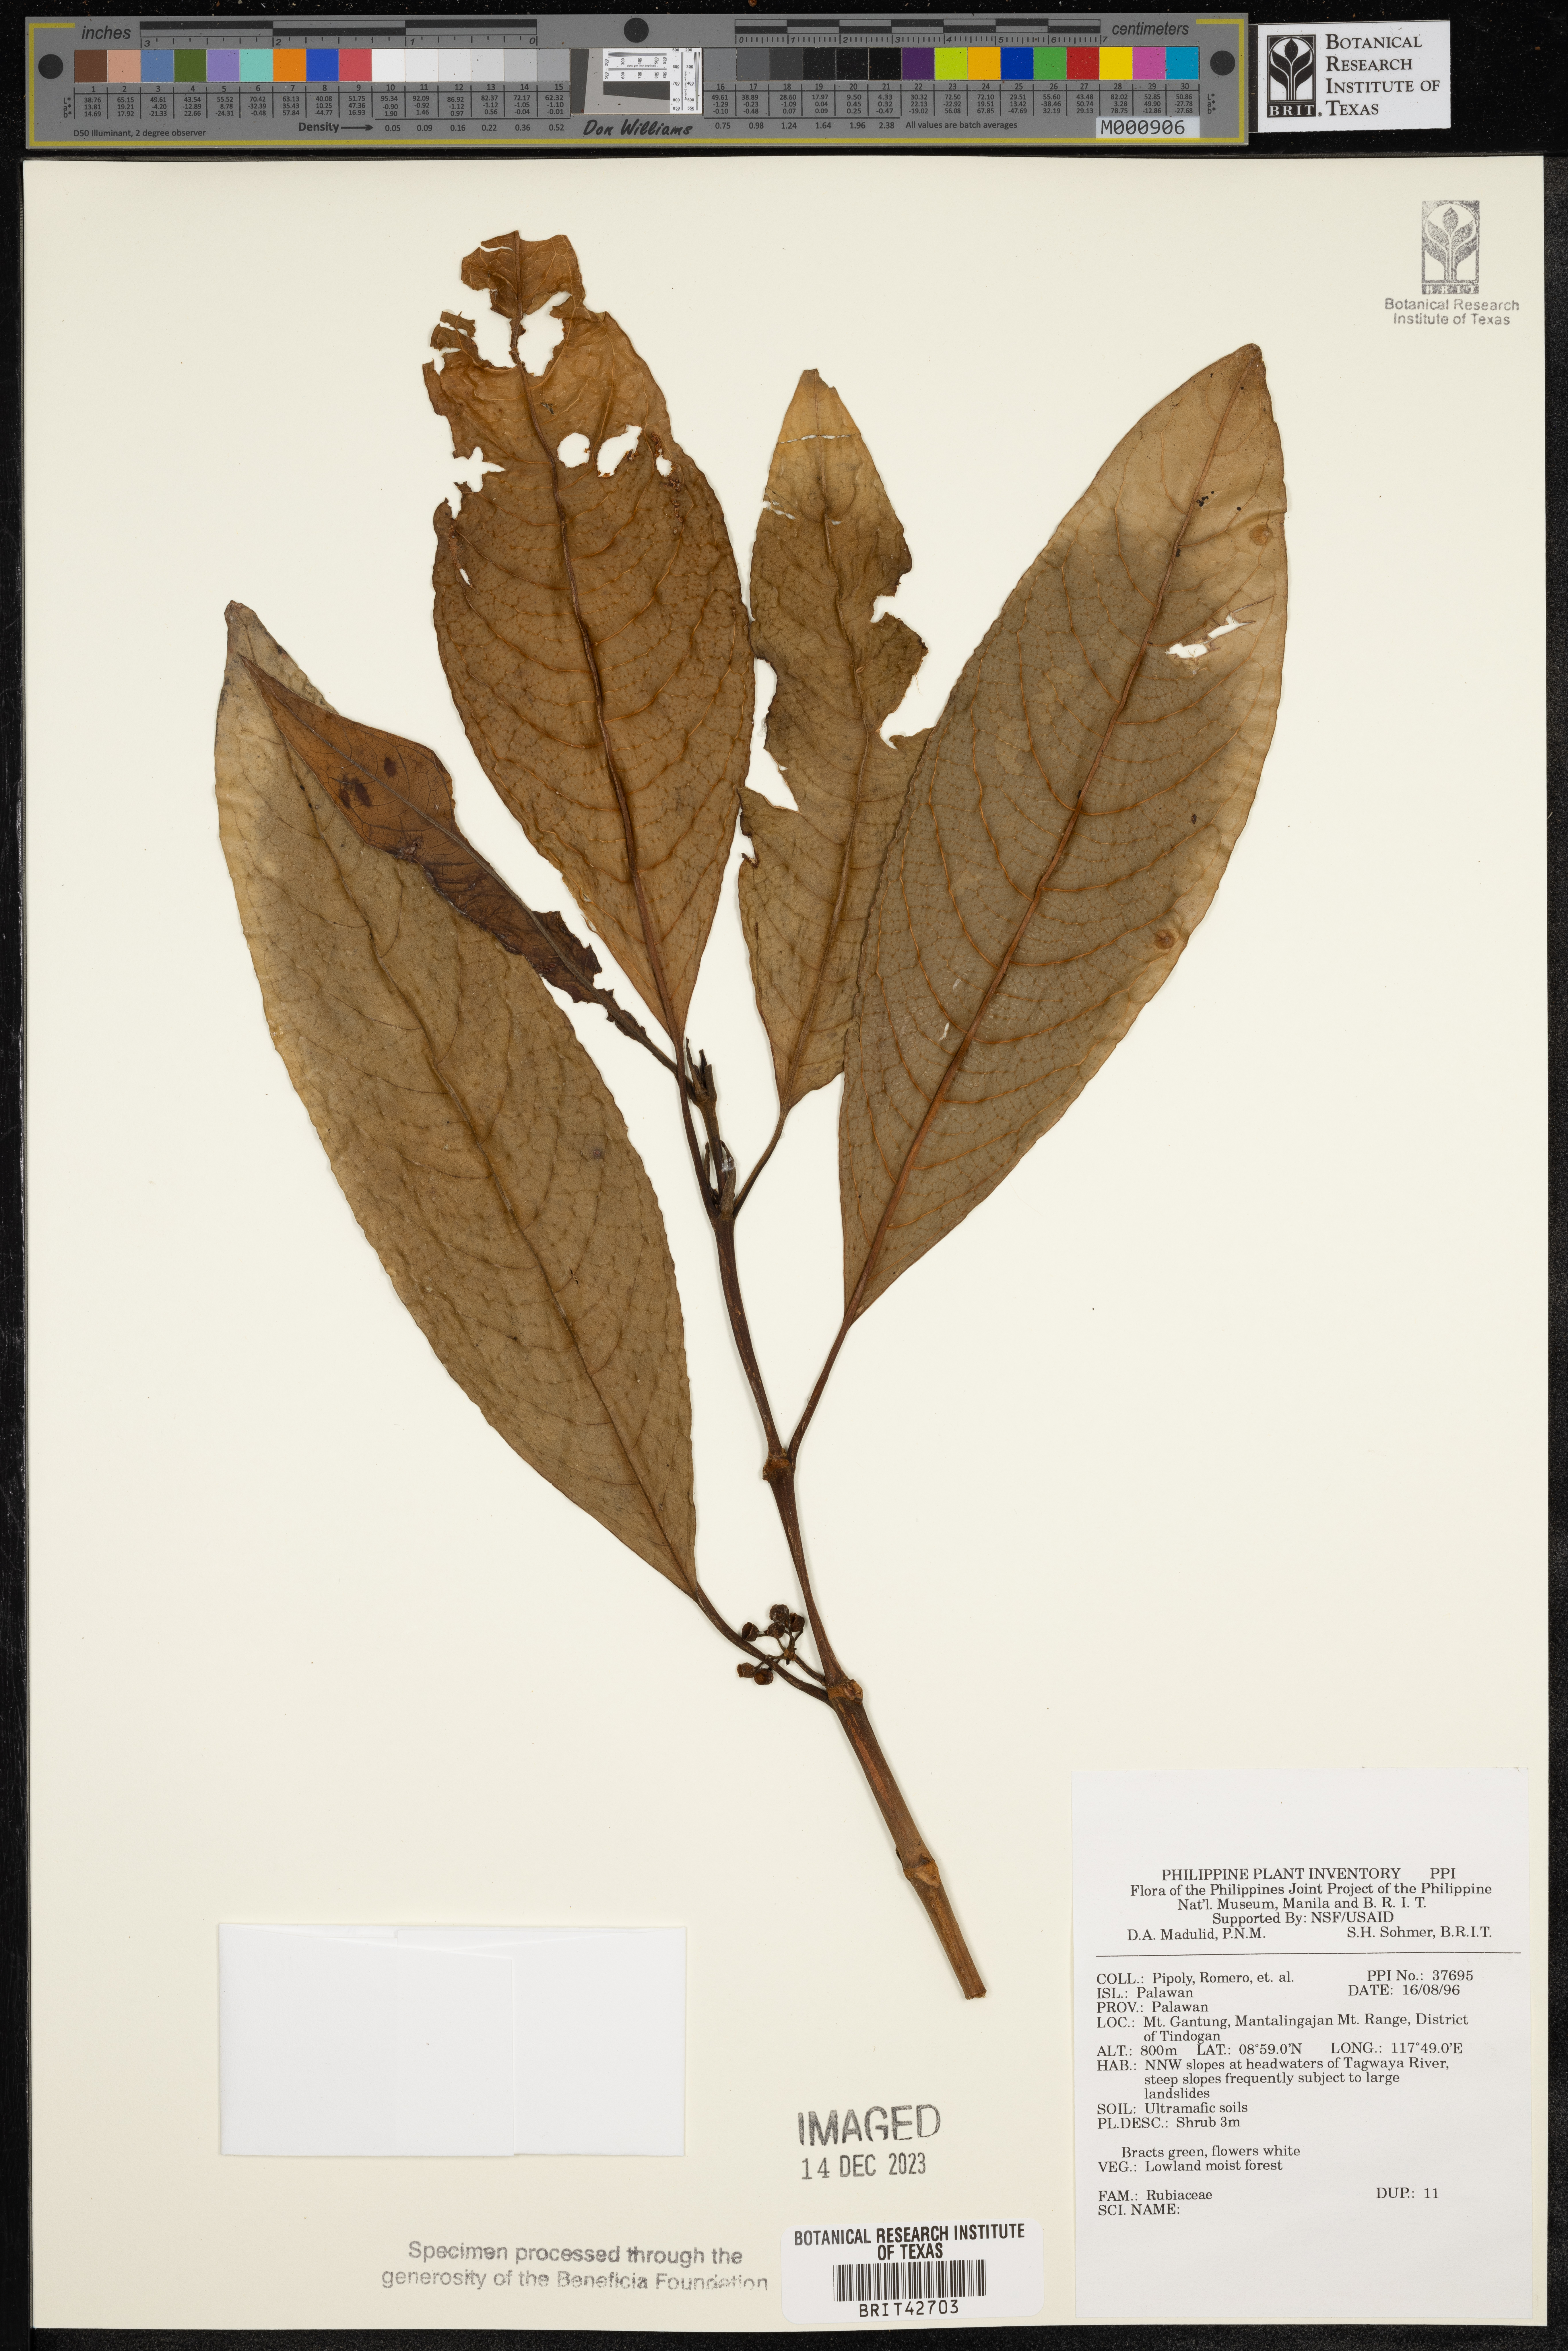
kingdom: Plantae
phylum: Tracheophyta
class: Magnoliopsida
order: Gentianales
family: Rubiaceae
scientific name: Rubiaceae
